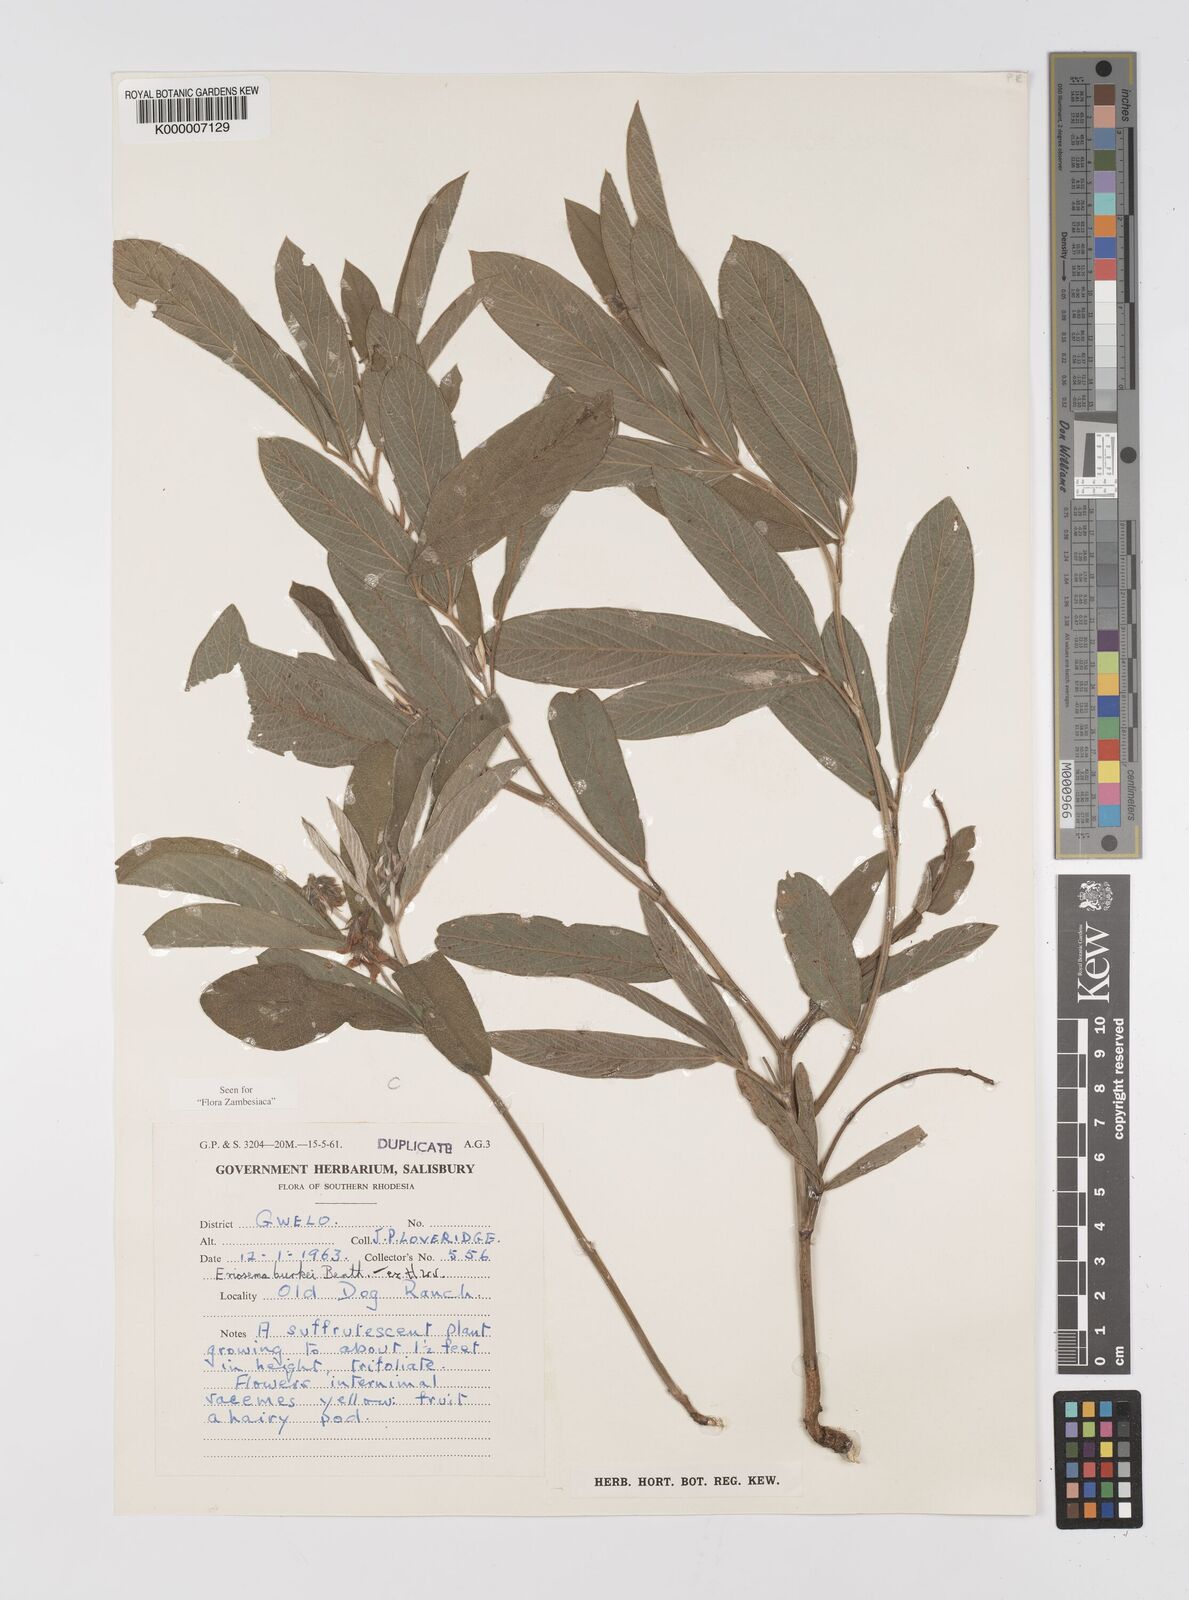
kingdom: Plantae
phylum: Tracheophyta
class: Magnoliopsida
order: Fabales
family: Fabaceae
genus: Eriosema
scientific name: Eriosema burkei
